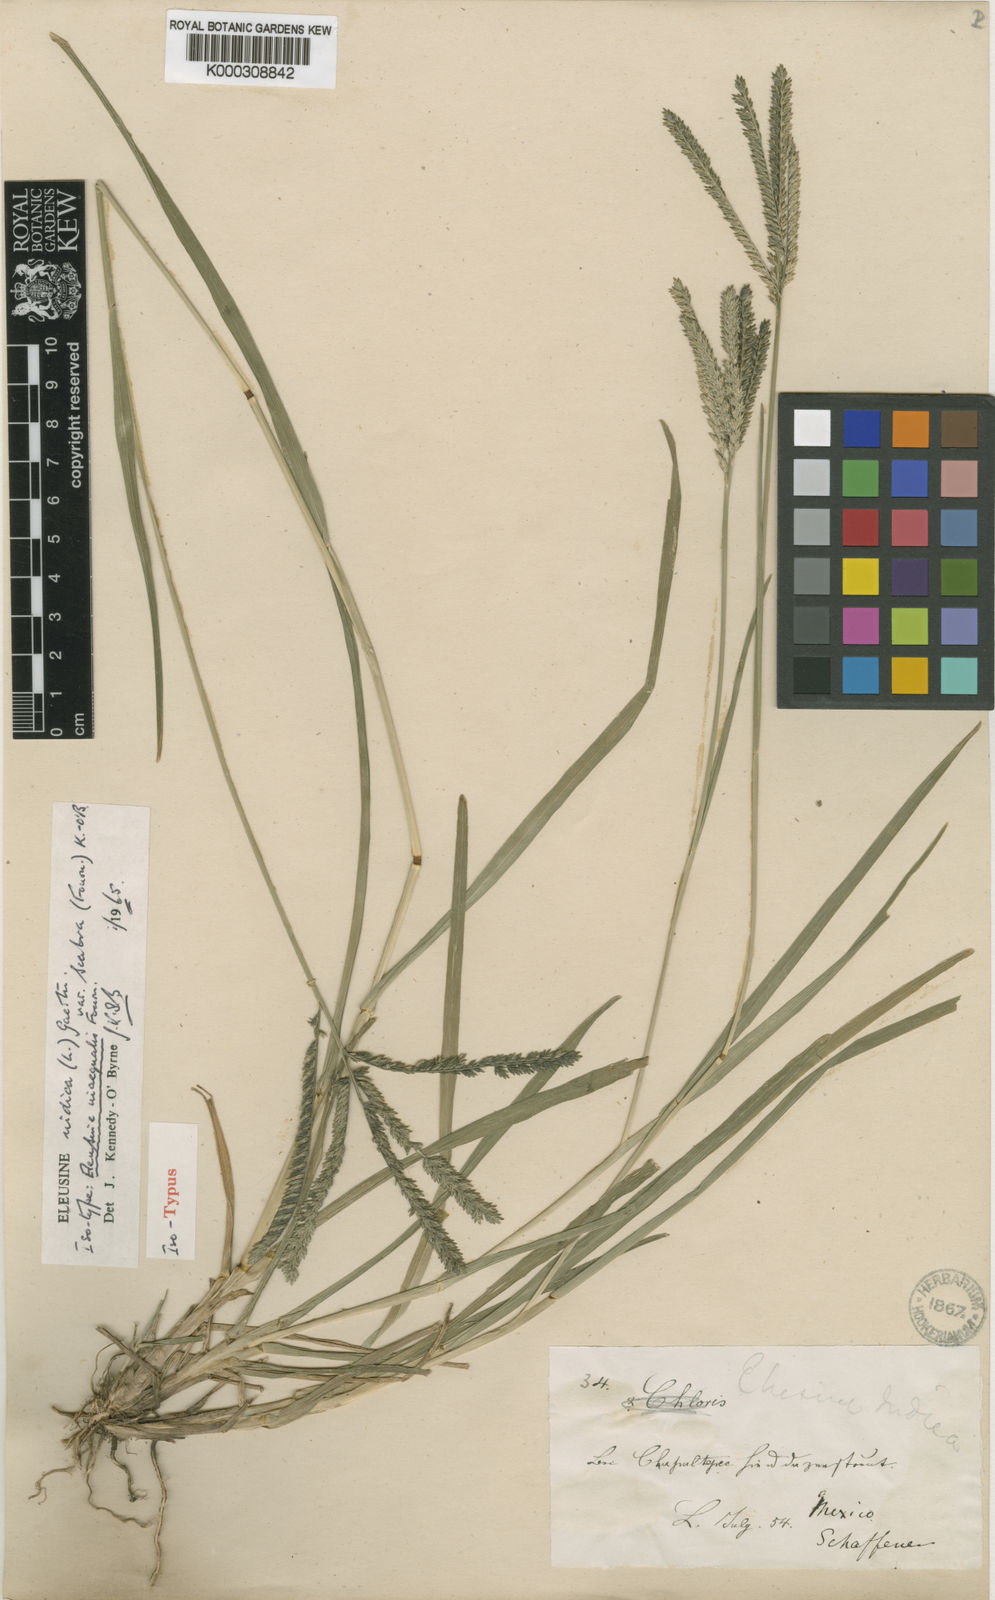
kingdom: Plantae
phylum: Tracheophyta
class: Liliopsida
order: Poales
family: Poaceae
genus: Eleusine
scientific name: Eleusine indica
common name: Yard-grass
